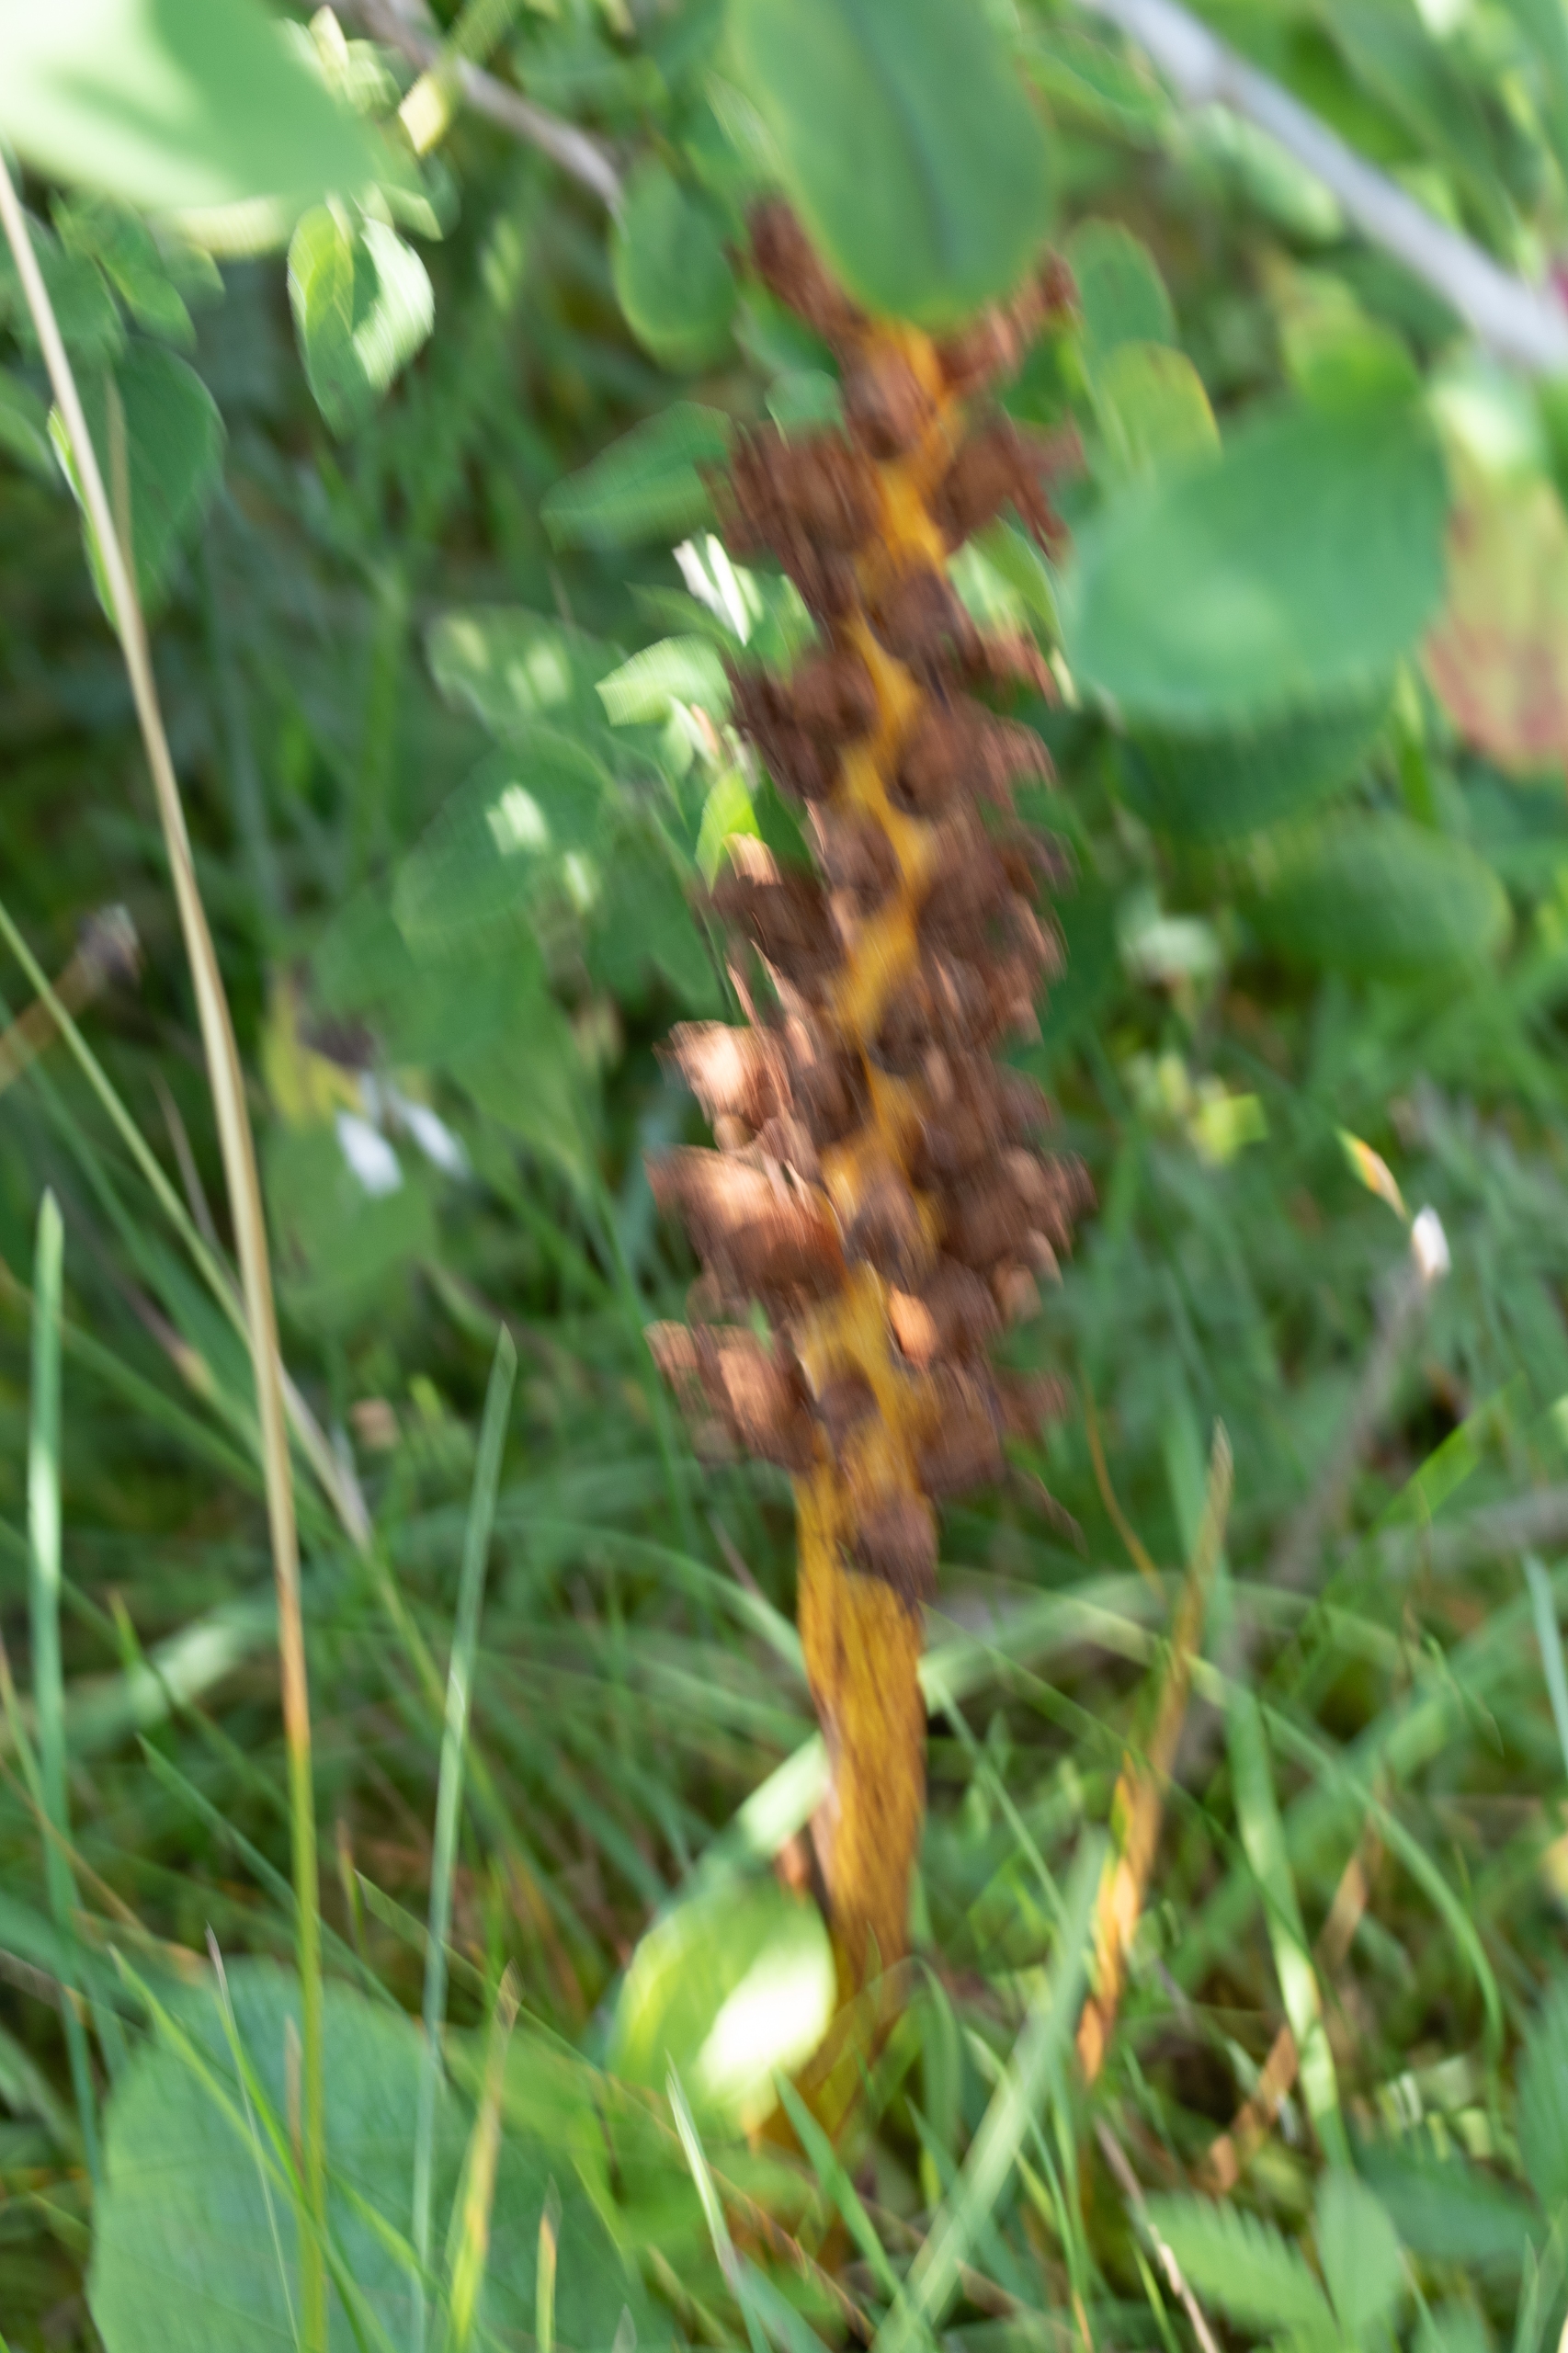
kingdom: Plantae
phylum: Tracheophyta
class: Magnoliopsida
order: Lamiales
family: Orobanchaceae
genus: Orobanche
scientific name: Orobanche lucorum
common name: Berberis-gyvelkvæler
